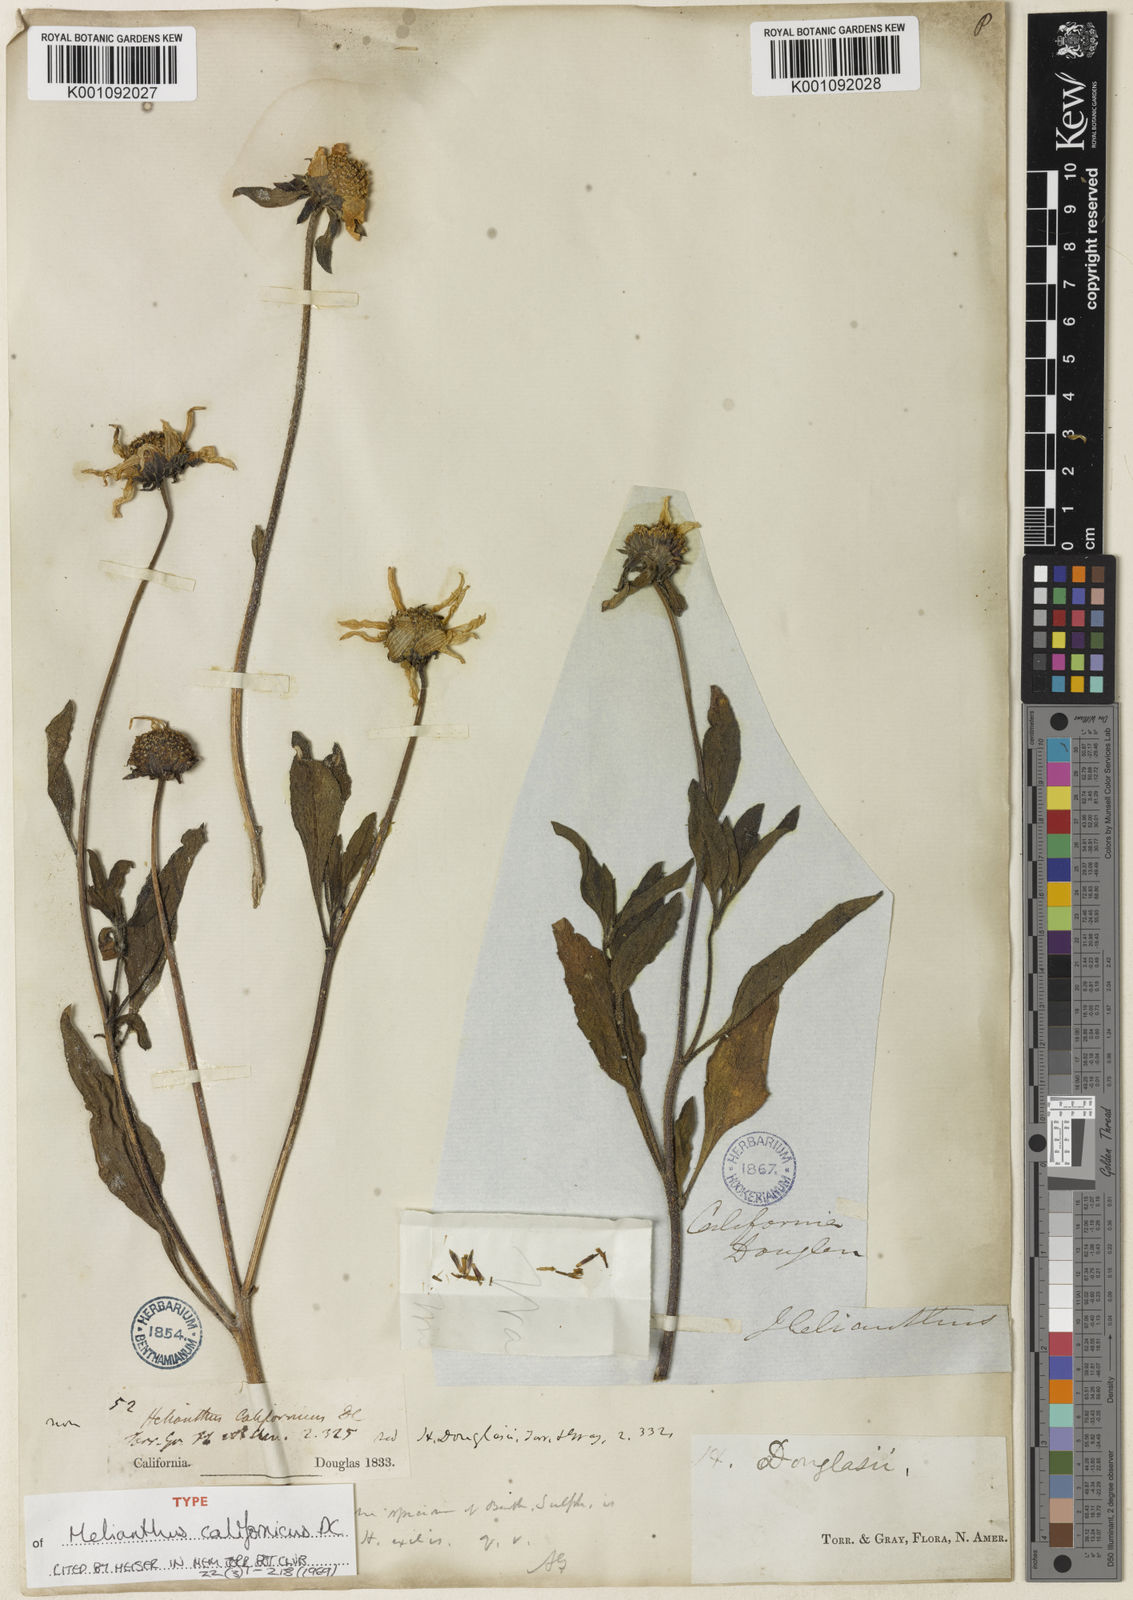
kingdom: Plantae
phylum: Tracheophyta
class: Magnoliopsida
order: Asterales
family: Asteraceae
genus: Helianthus
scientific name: Helianthus californicus
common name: California sunflower
